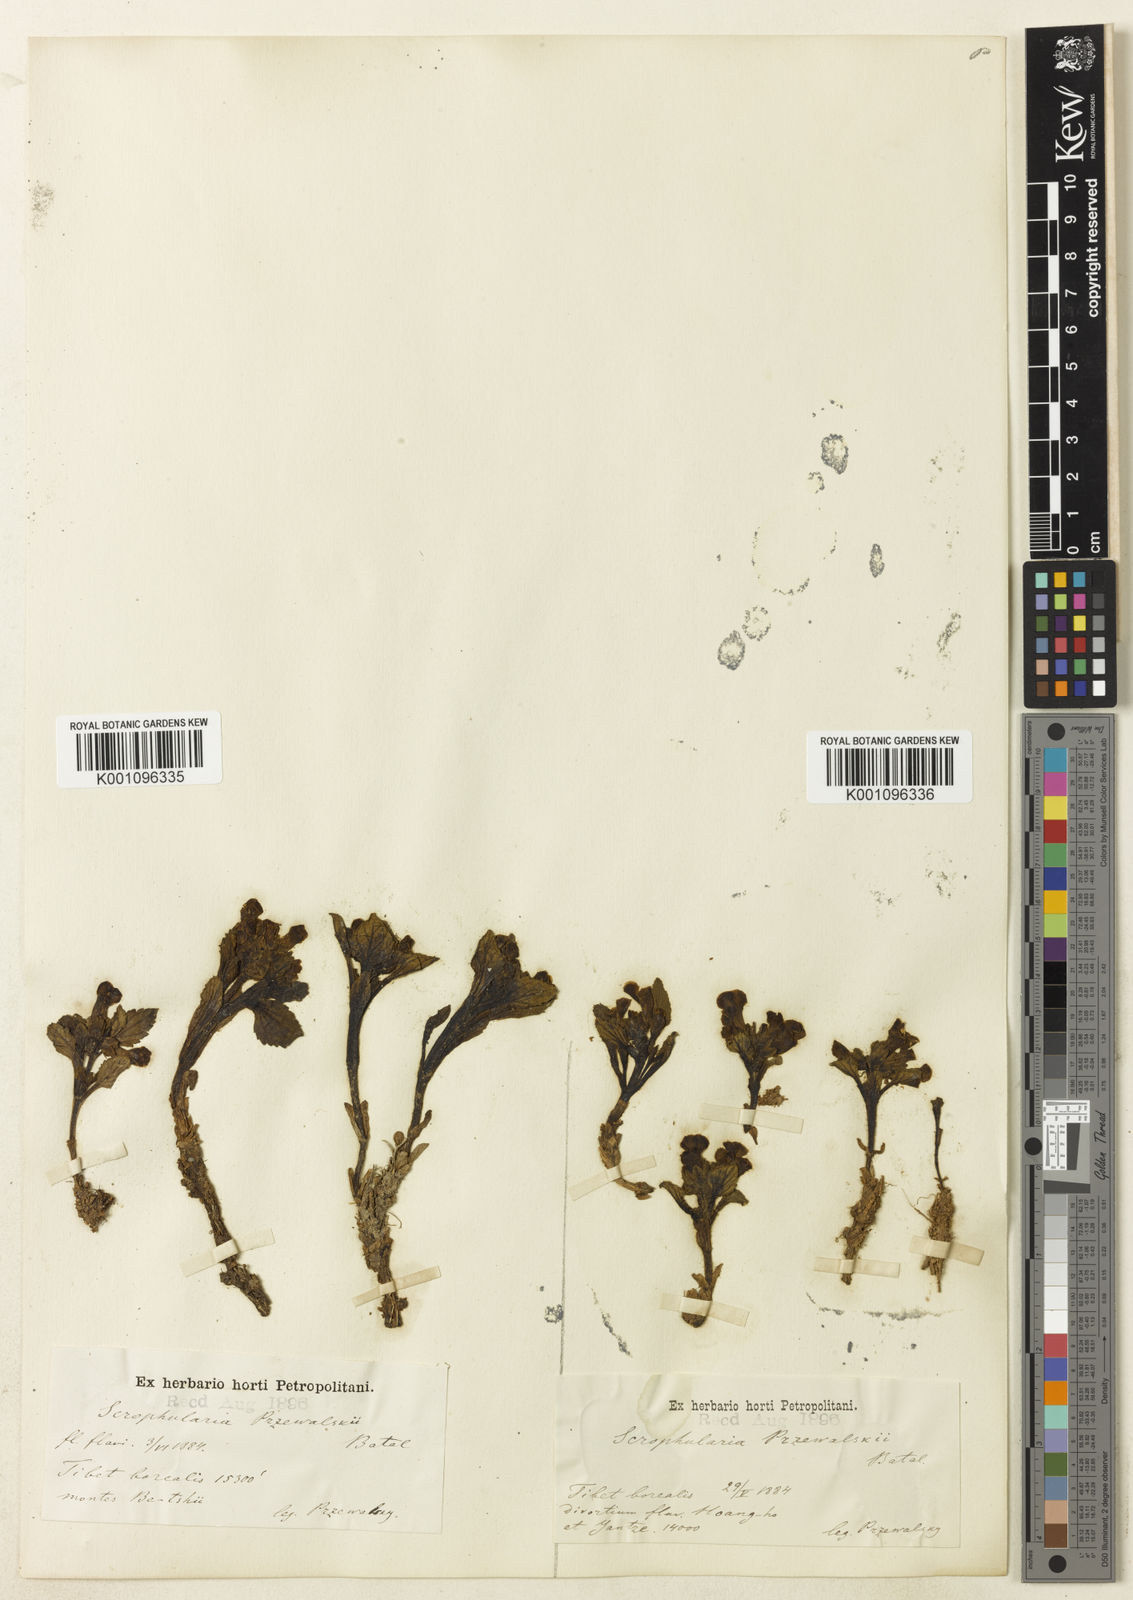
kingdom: Plantae
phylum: Tracheophyta
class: Magnoliopsida
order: Lamiales
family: Scrophulariaceae
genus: Scrophularia
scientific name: Scrophularia przewalskii
